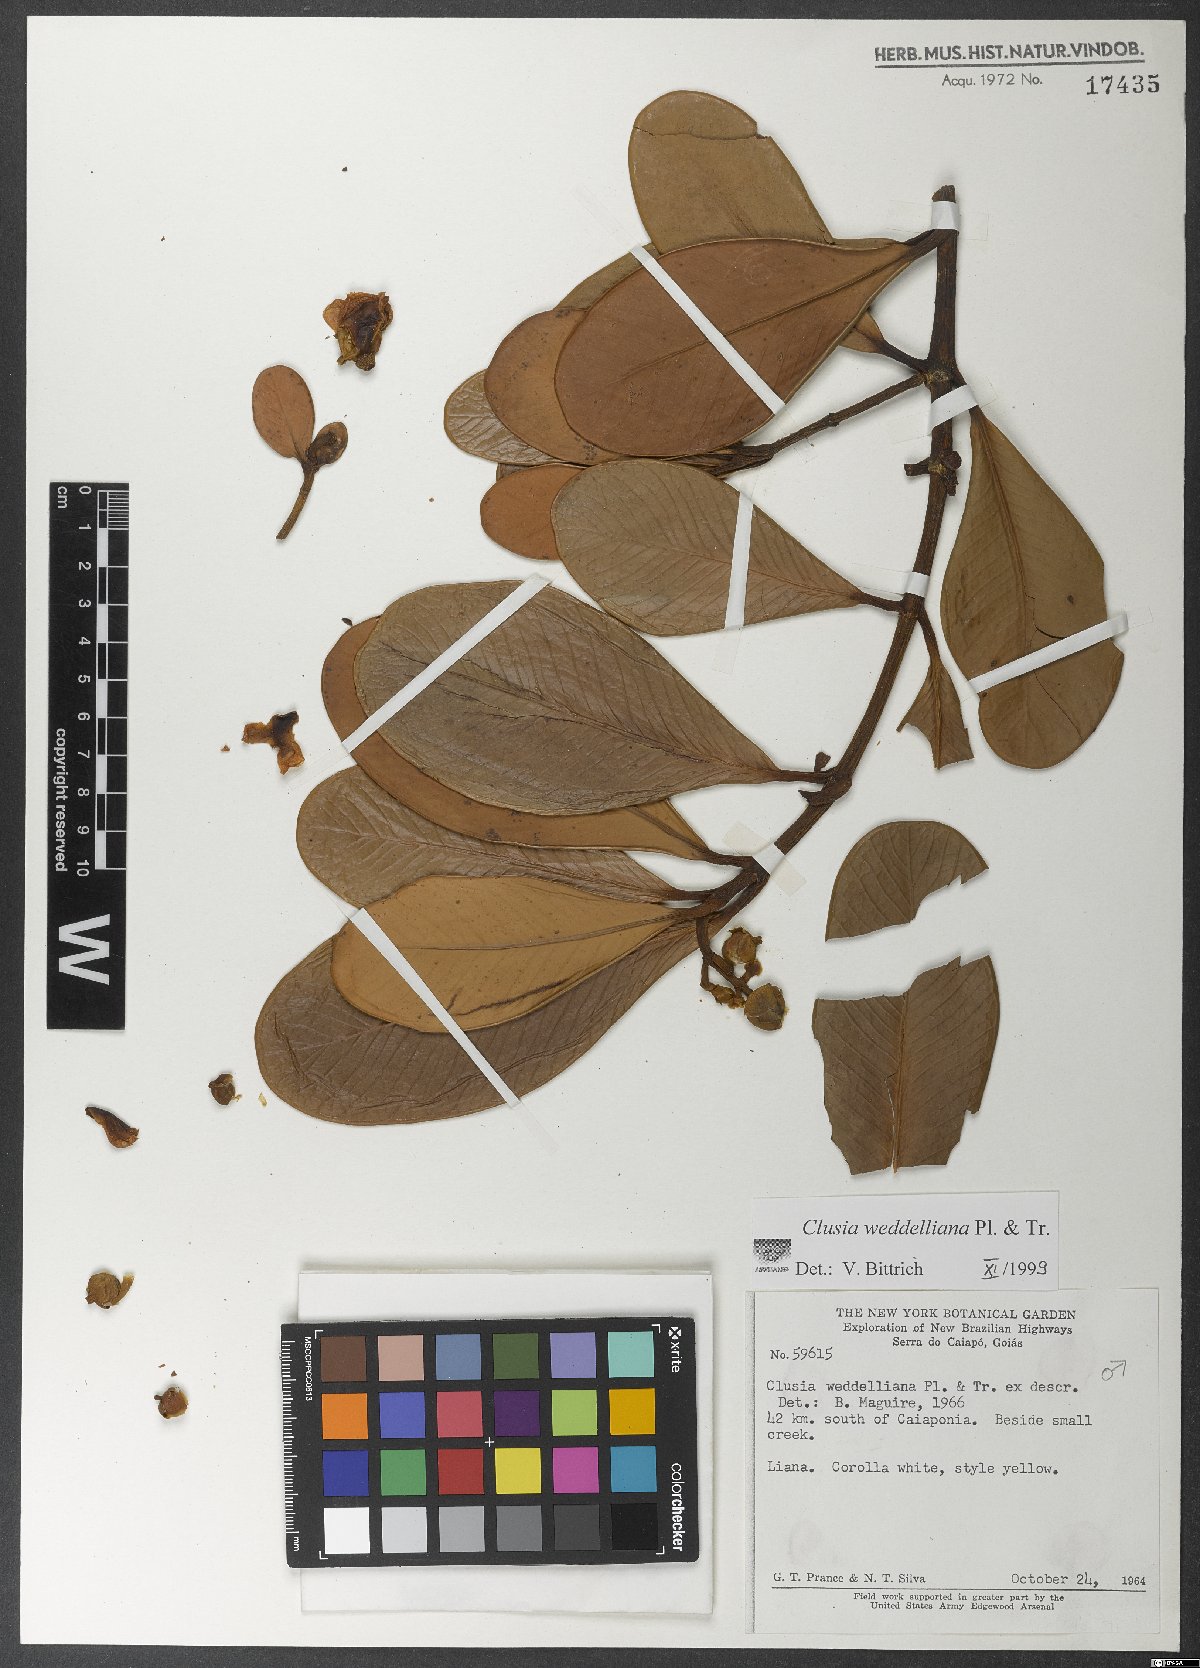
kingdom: Plantae
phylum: Tracheophyta
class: Magnoliopsida
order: Malpighiales
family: Clusiaceae
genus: Clusia
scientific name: Clusia weddelliana
